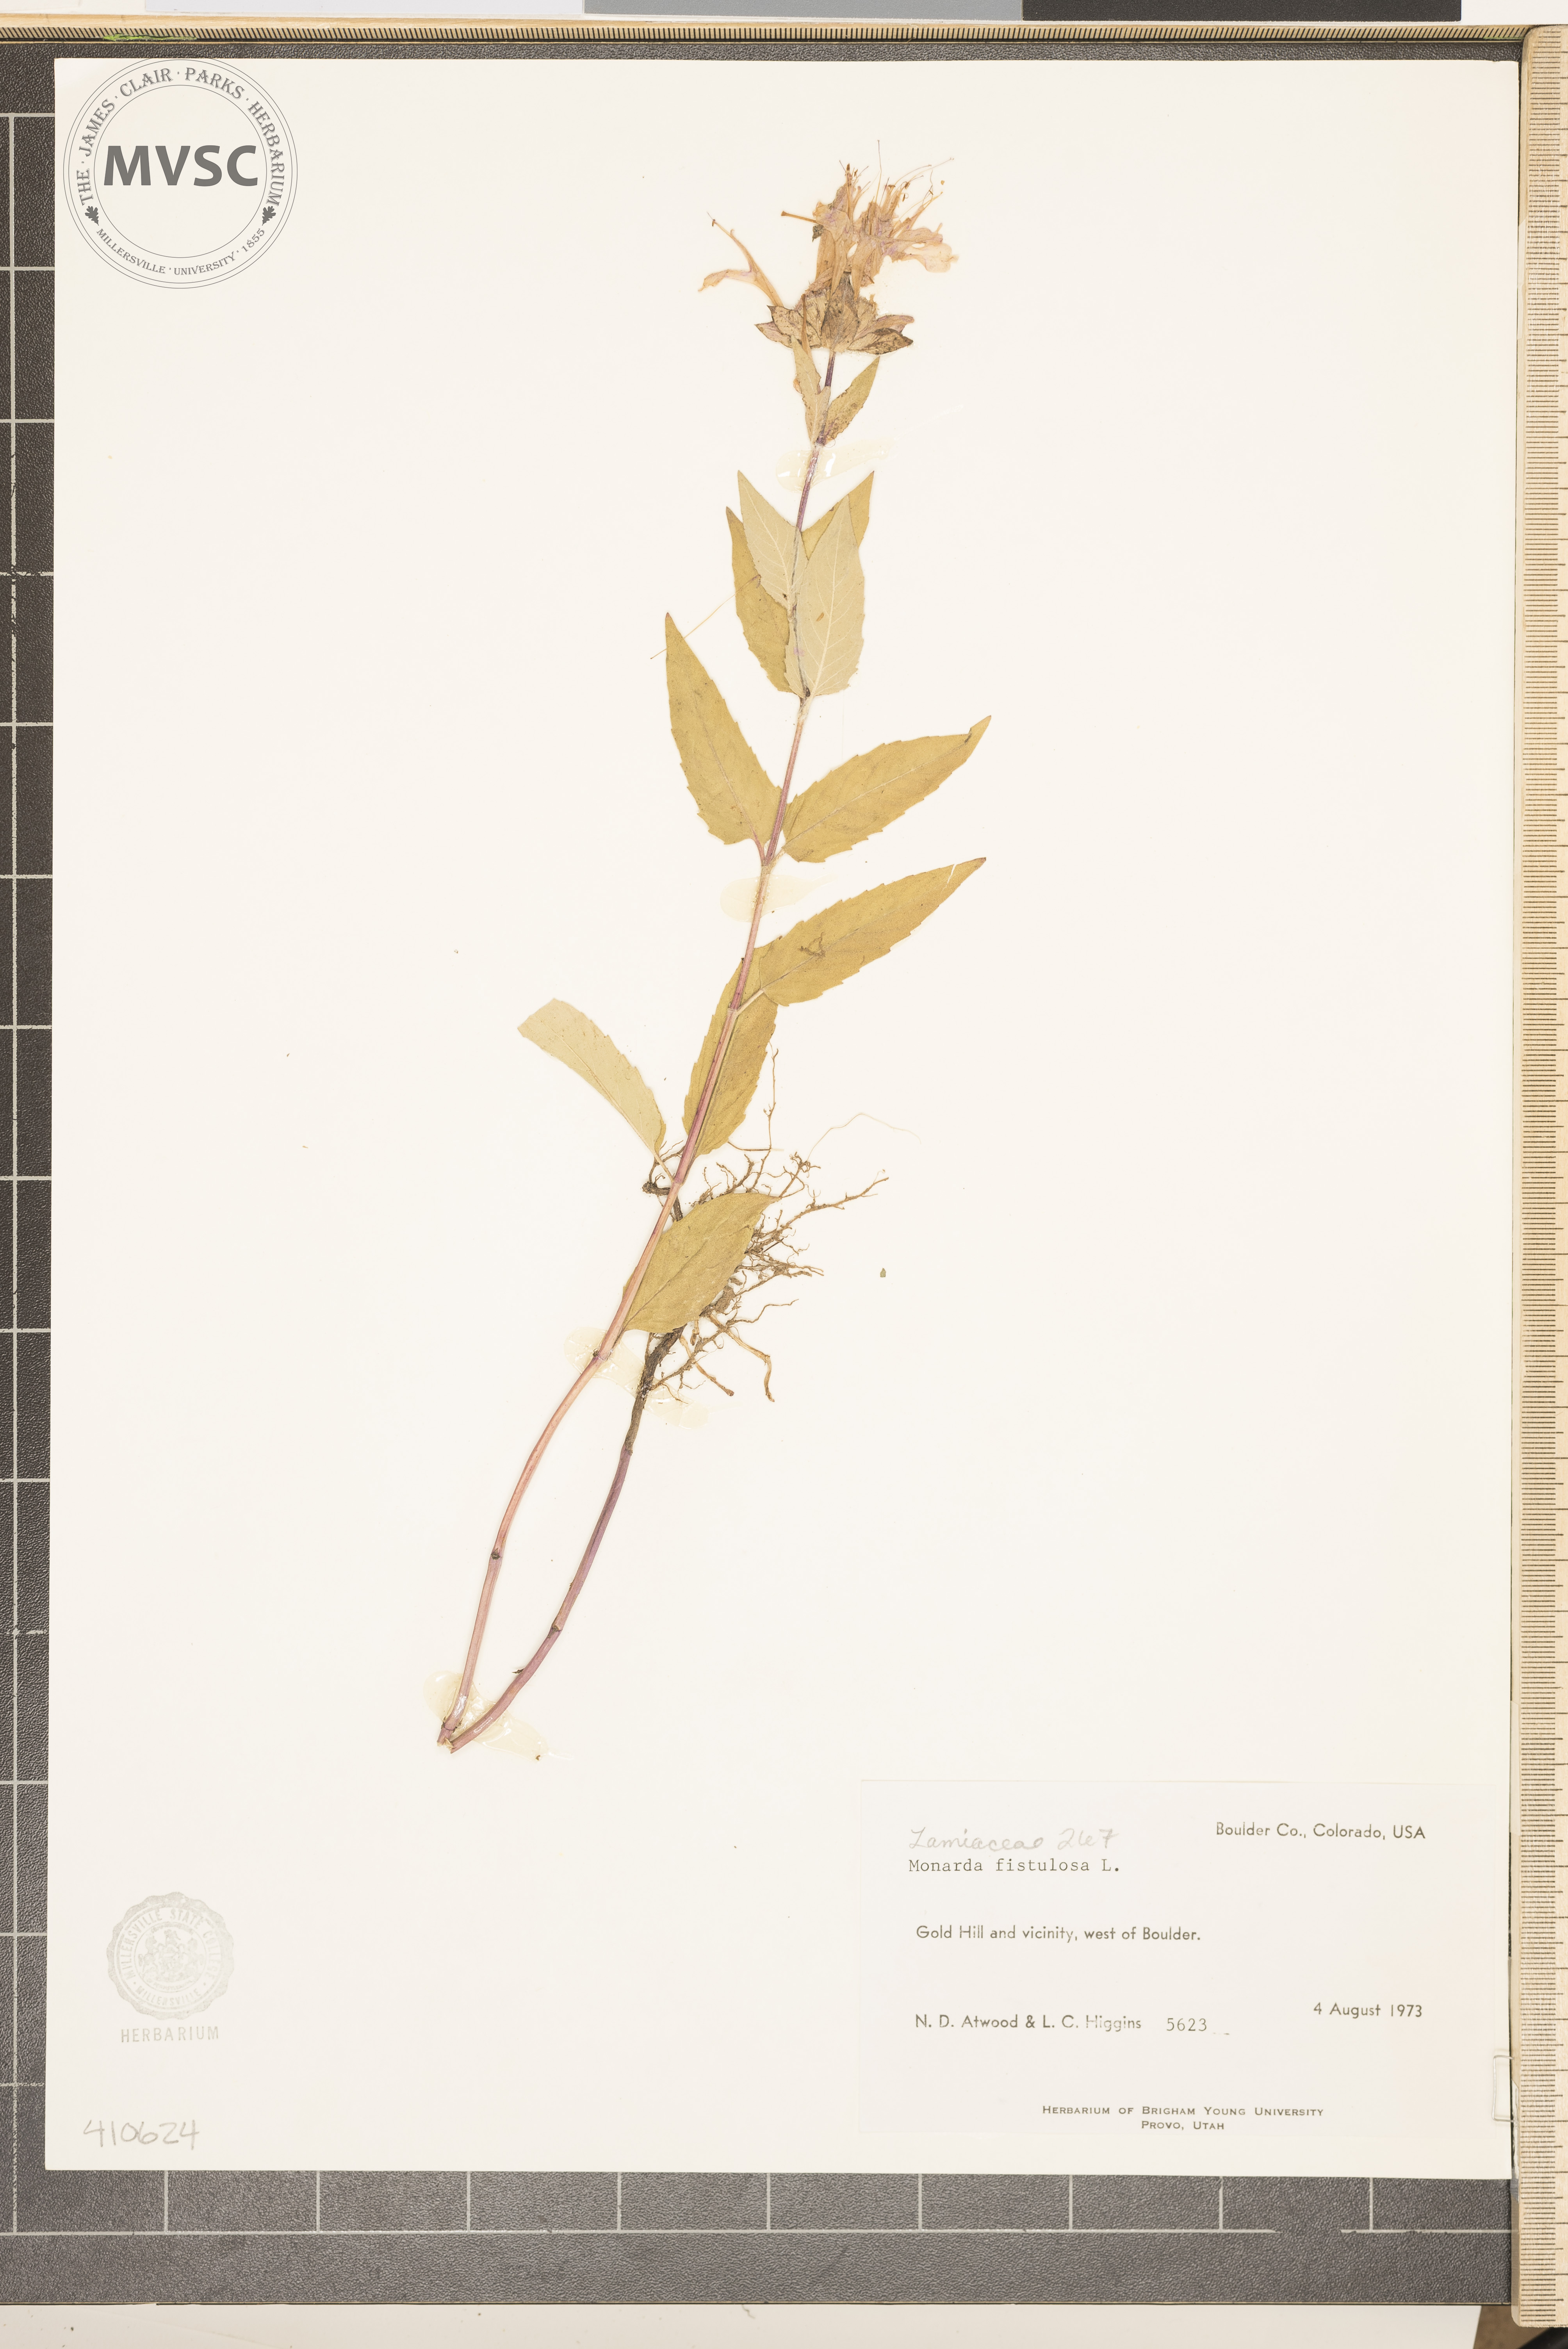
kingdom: Plantae
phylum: Tracheophyta
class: Magnoliopsida
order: Lamiales
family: Lamiaceae
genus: Monarda
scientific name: Monarda fistulosa
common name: Purple beebalm
